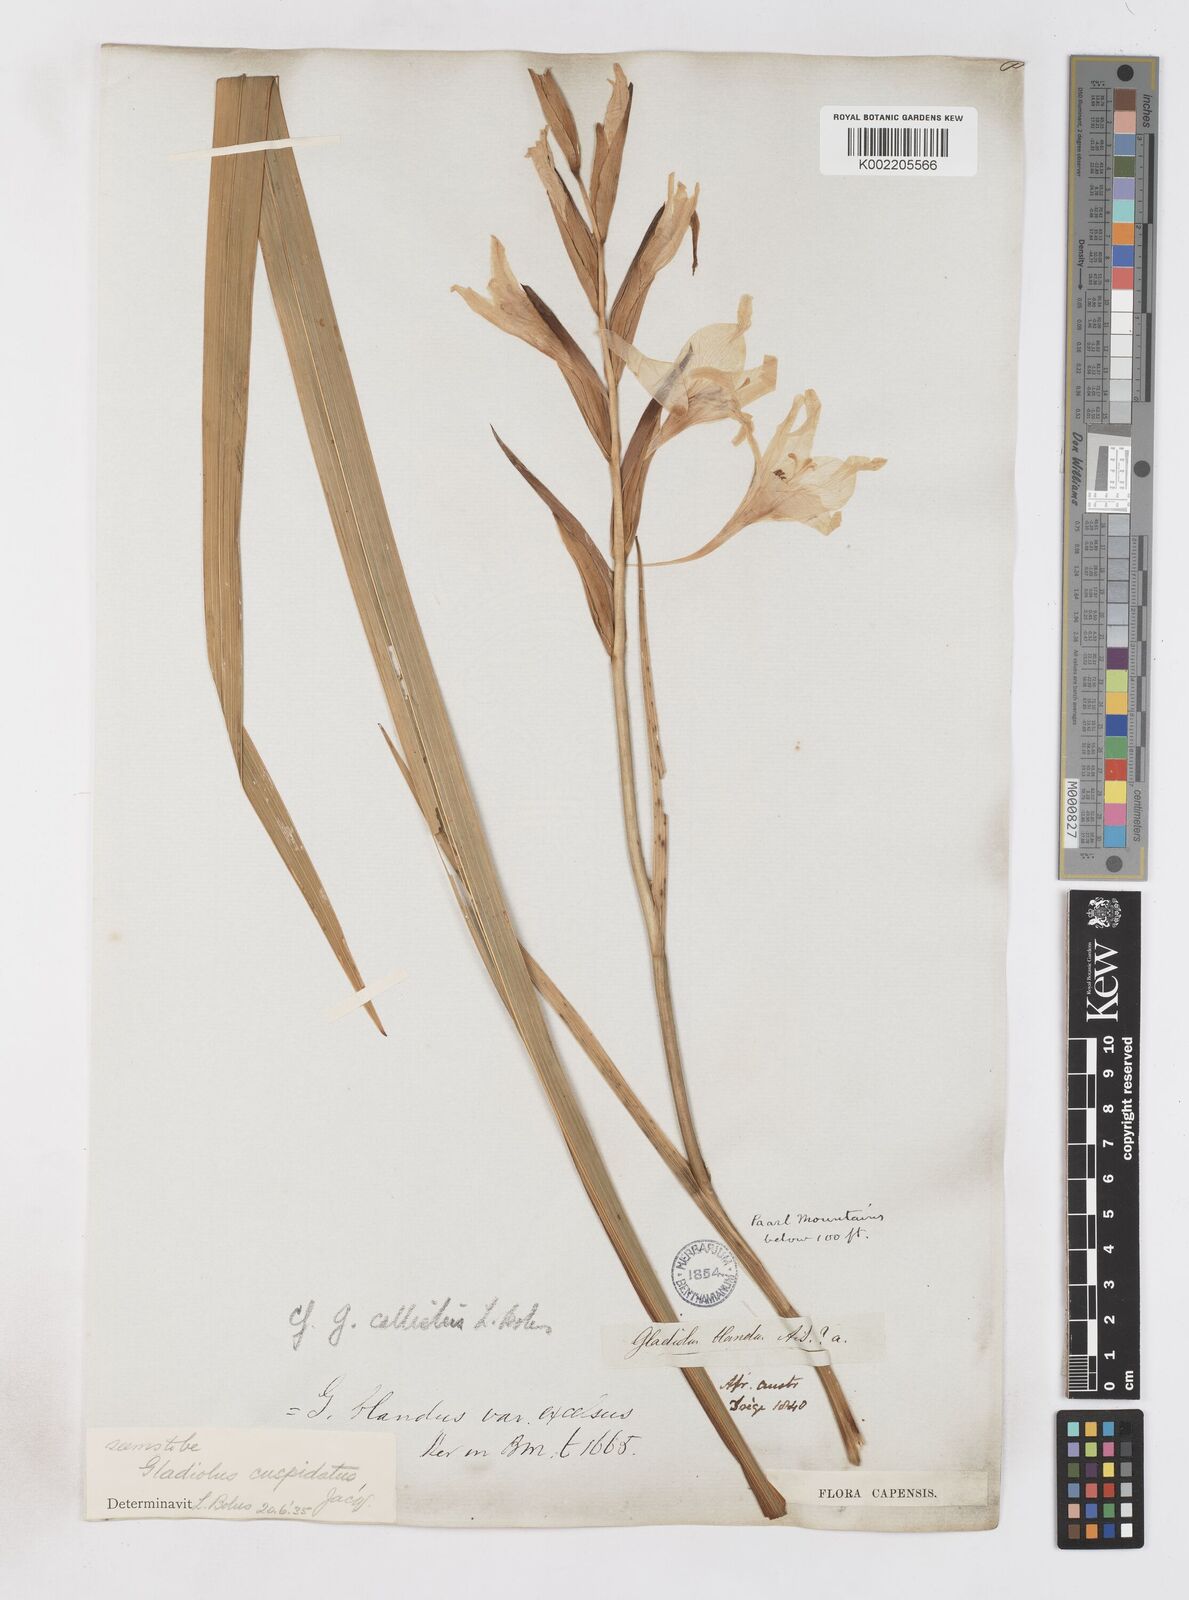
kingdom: Plantae
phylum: Tracheophyta
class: Liliopsida
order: Asparagales
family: Iridaceae
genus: Gladiolus
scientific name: Gladiolus carneus
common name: Painted-lady
